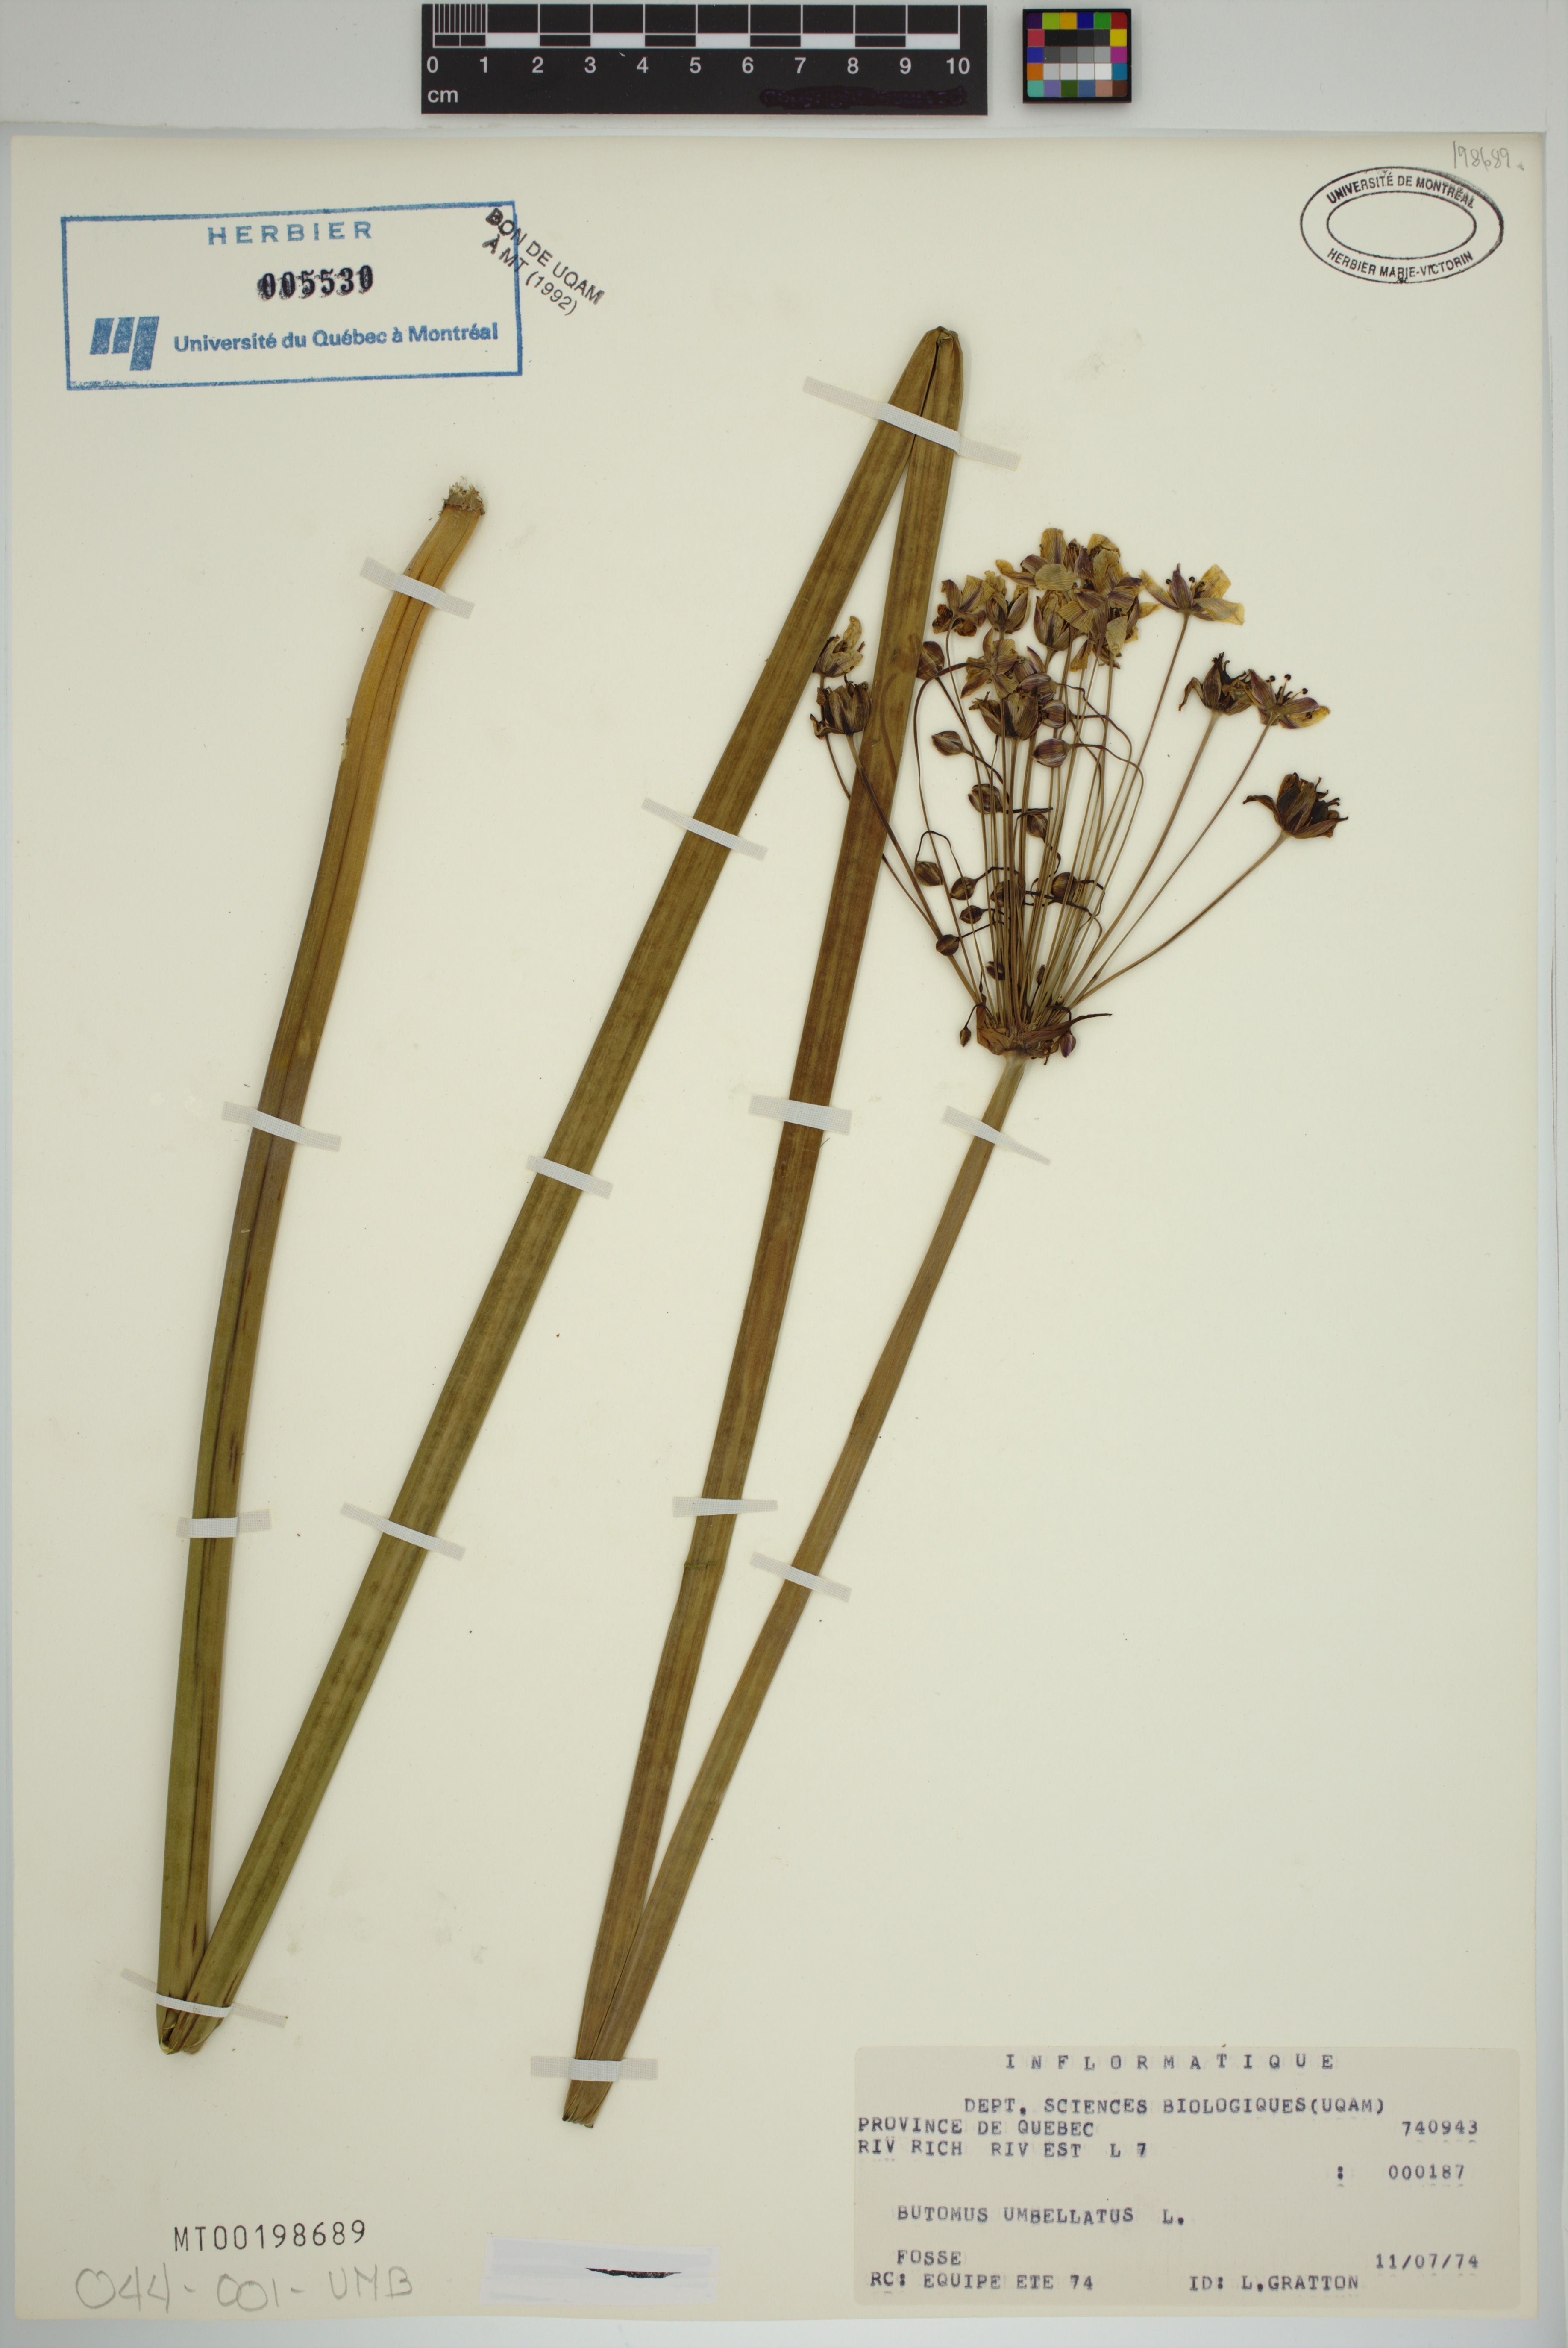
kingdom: Plantae
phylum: Tracheophyta
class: Liliopsida
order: Alismatales
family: Butomaceae
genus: Butomus
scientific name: Butomus umbellatus
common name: Flowering-rush
